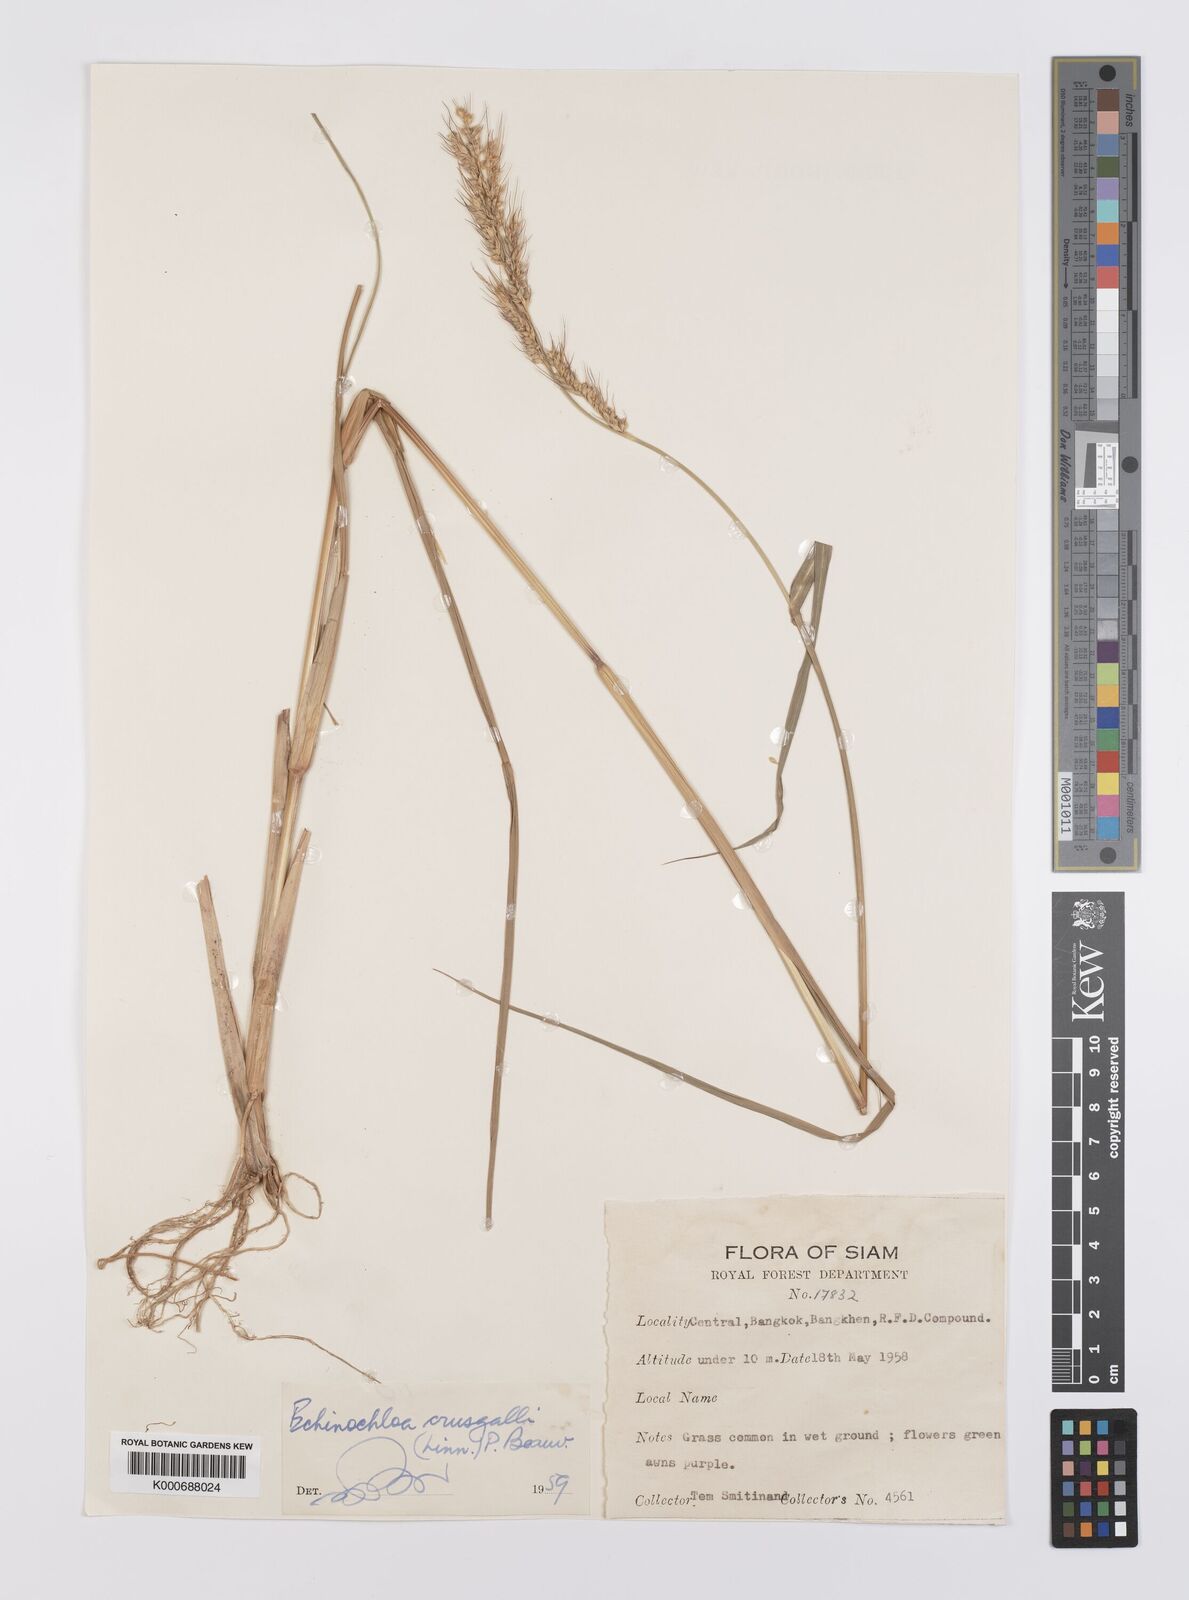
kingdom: Plantae
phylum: Tracheophyta
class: Liliopsida
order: Poales
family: Poaceae
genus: Echinochloa
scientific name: Echinochloa crus-galli
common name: Cockspur
